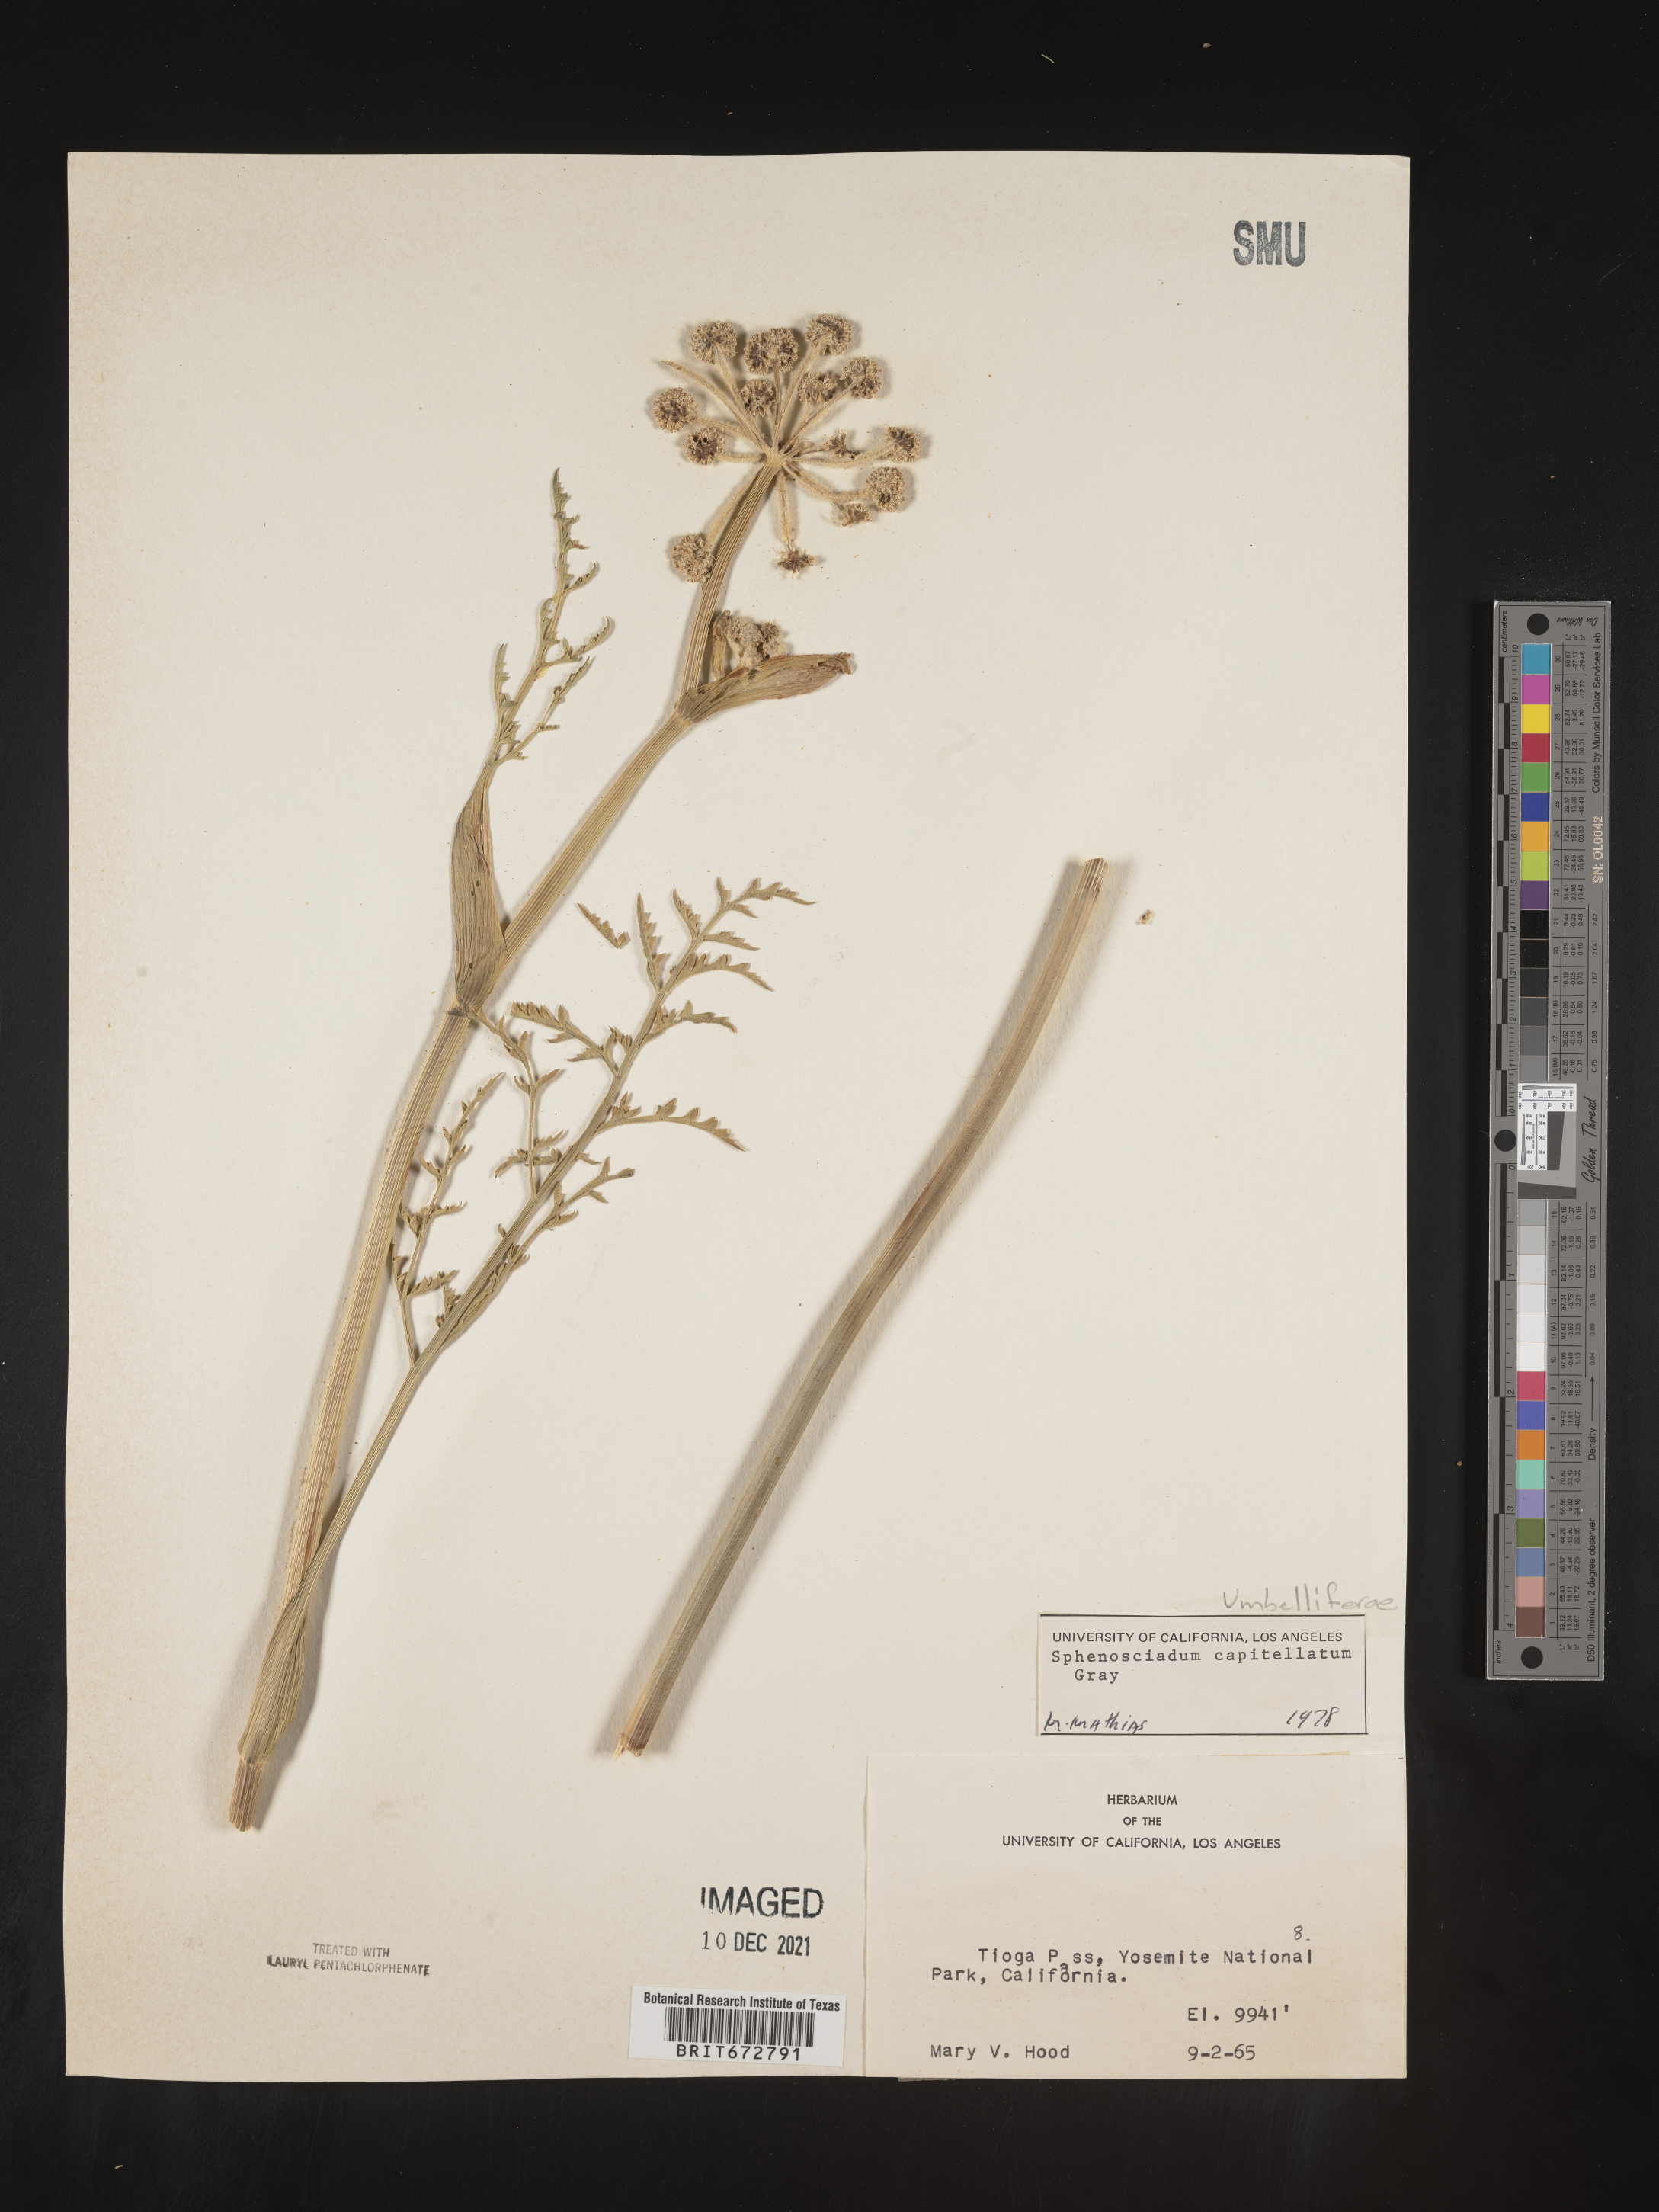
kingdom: Plantae
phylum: Tracheophyta
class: Magnoliopsida
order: Apiales
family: Apiaceae
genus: Angelica
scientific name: Angelica
